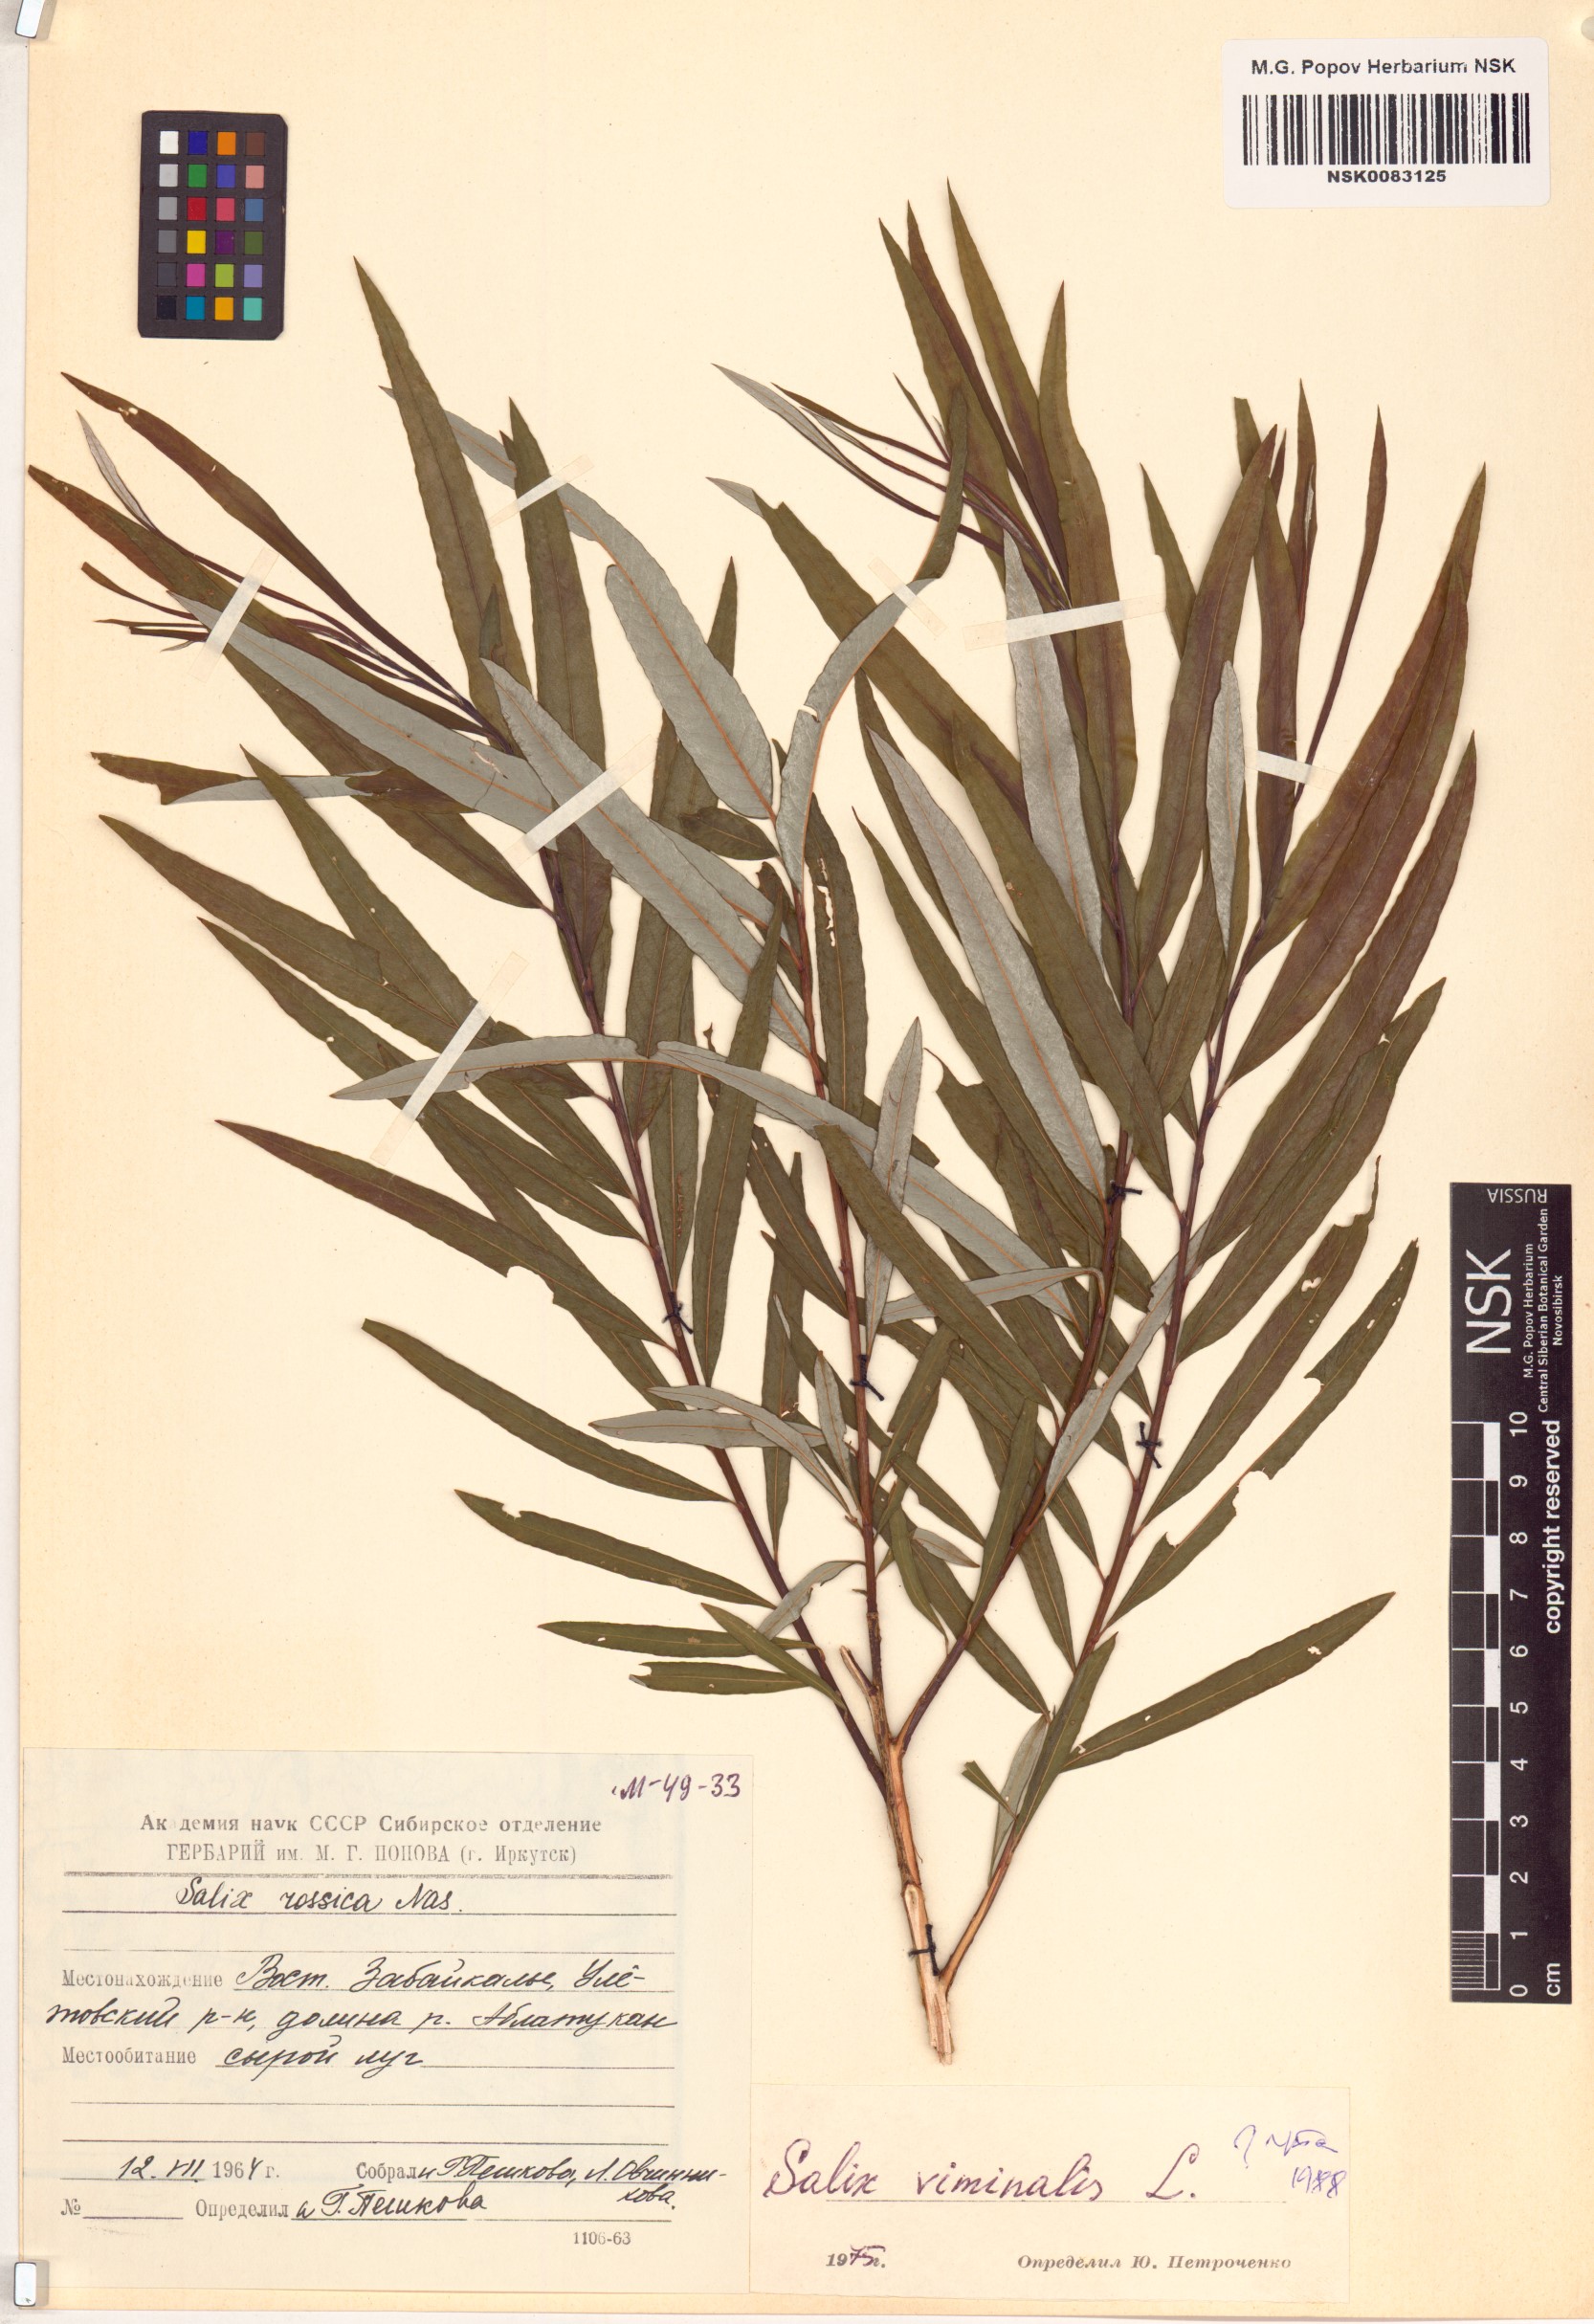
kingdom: Plantae
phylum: Tracheophyta
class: Magnoliopsida
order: Malpighiales
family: Salicaceae
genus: Salix
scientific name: Salix viminalis
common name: Osier
